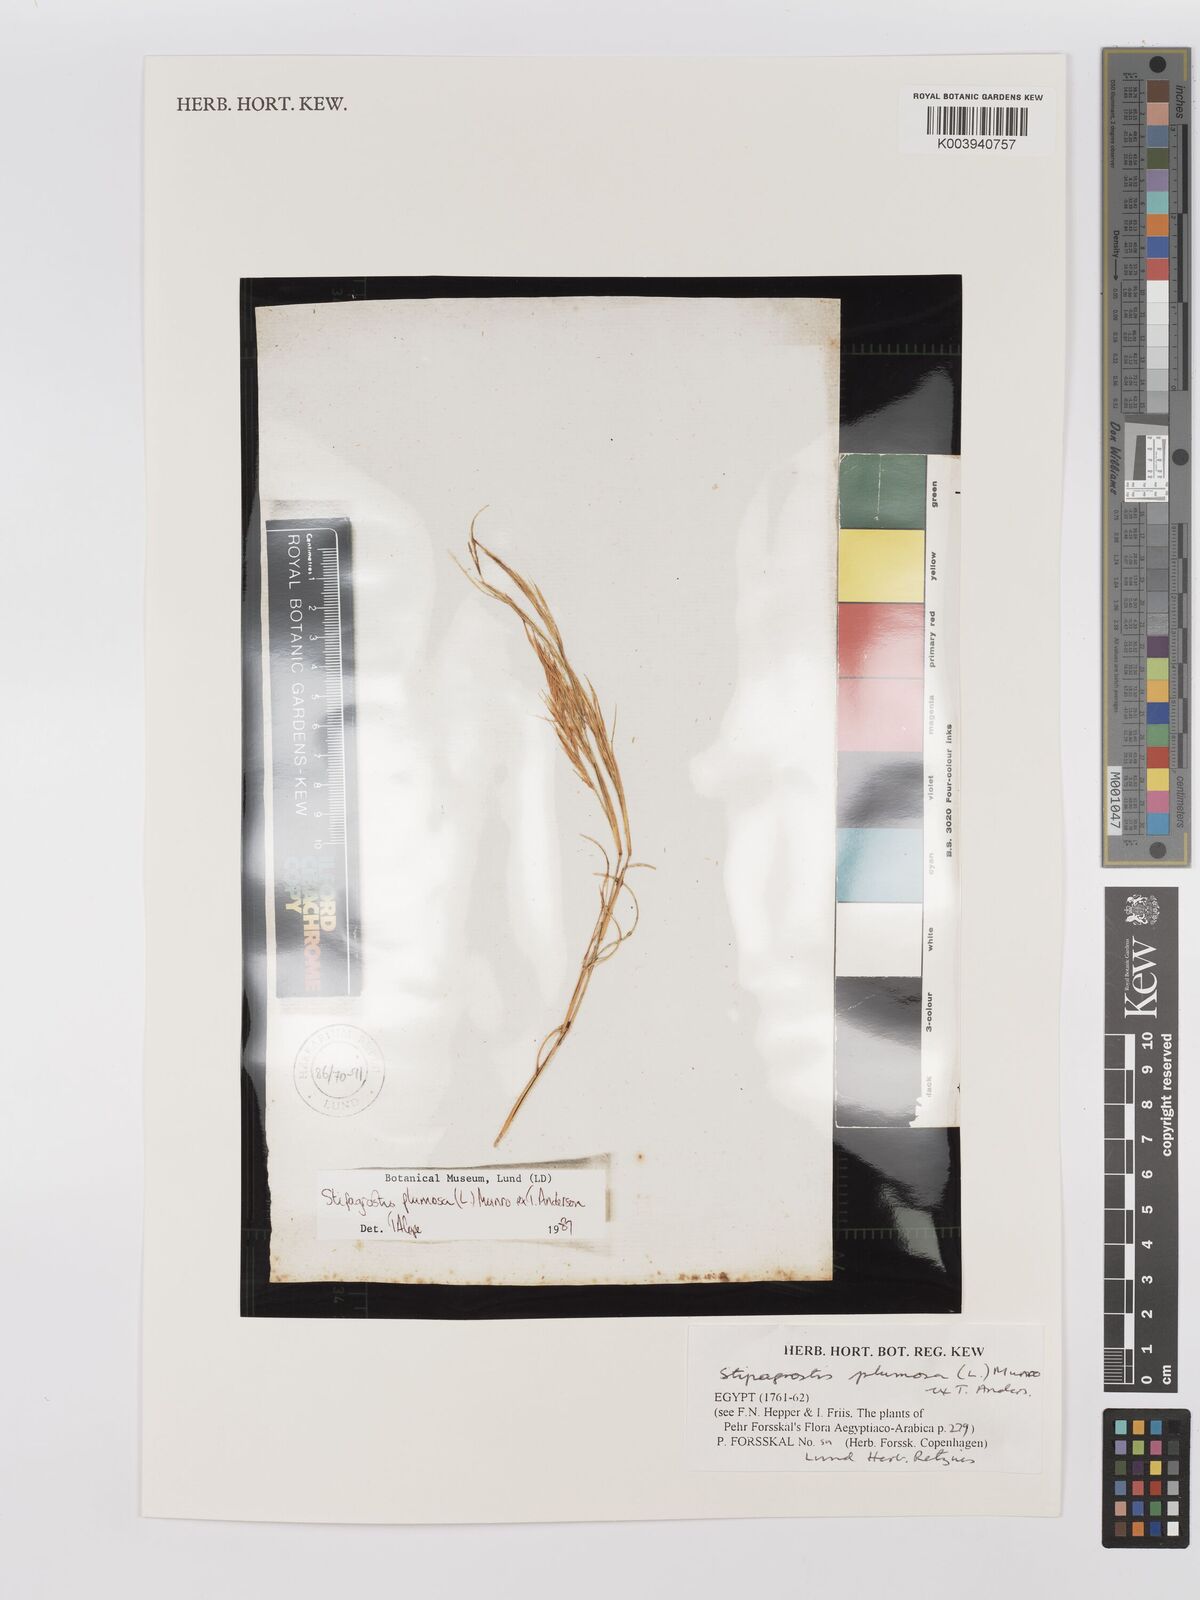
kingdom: Plantae
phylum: Tracheophyta
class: Liliopsida
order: Poales
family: Poaceae
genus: Stipagrostis
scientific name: Stipagrostis plumosa
